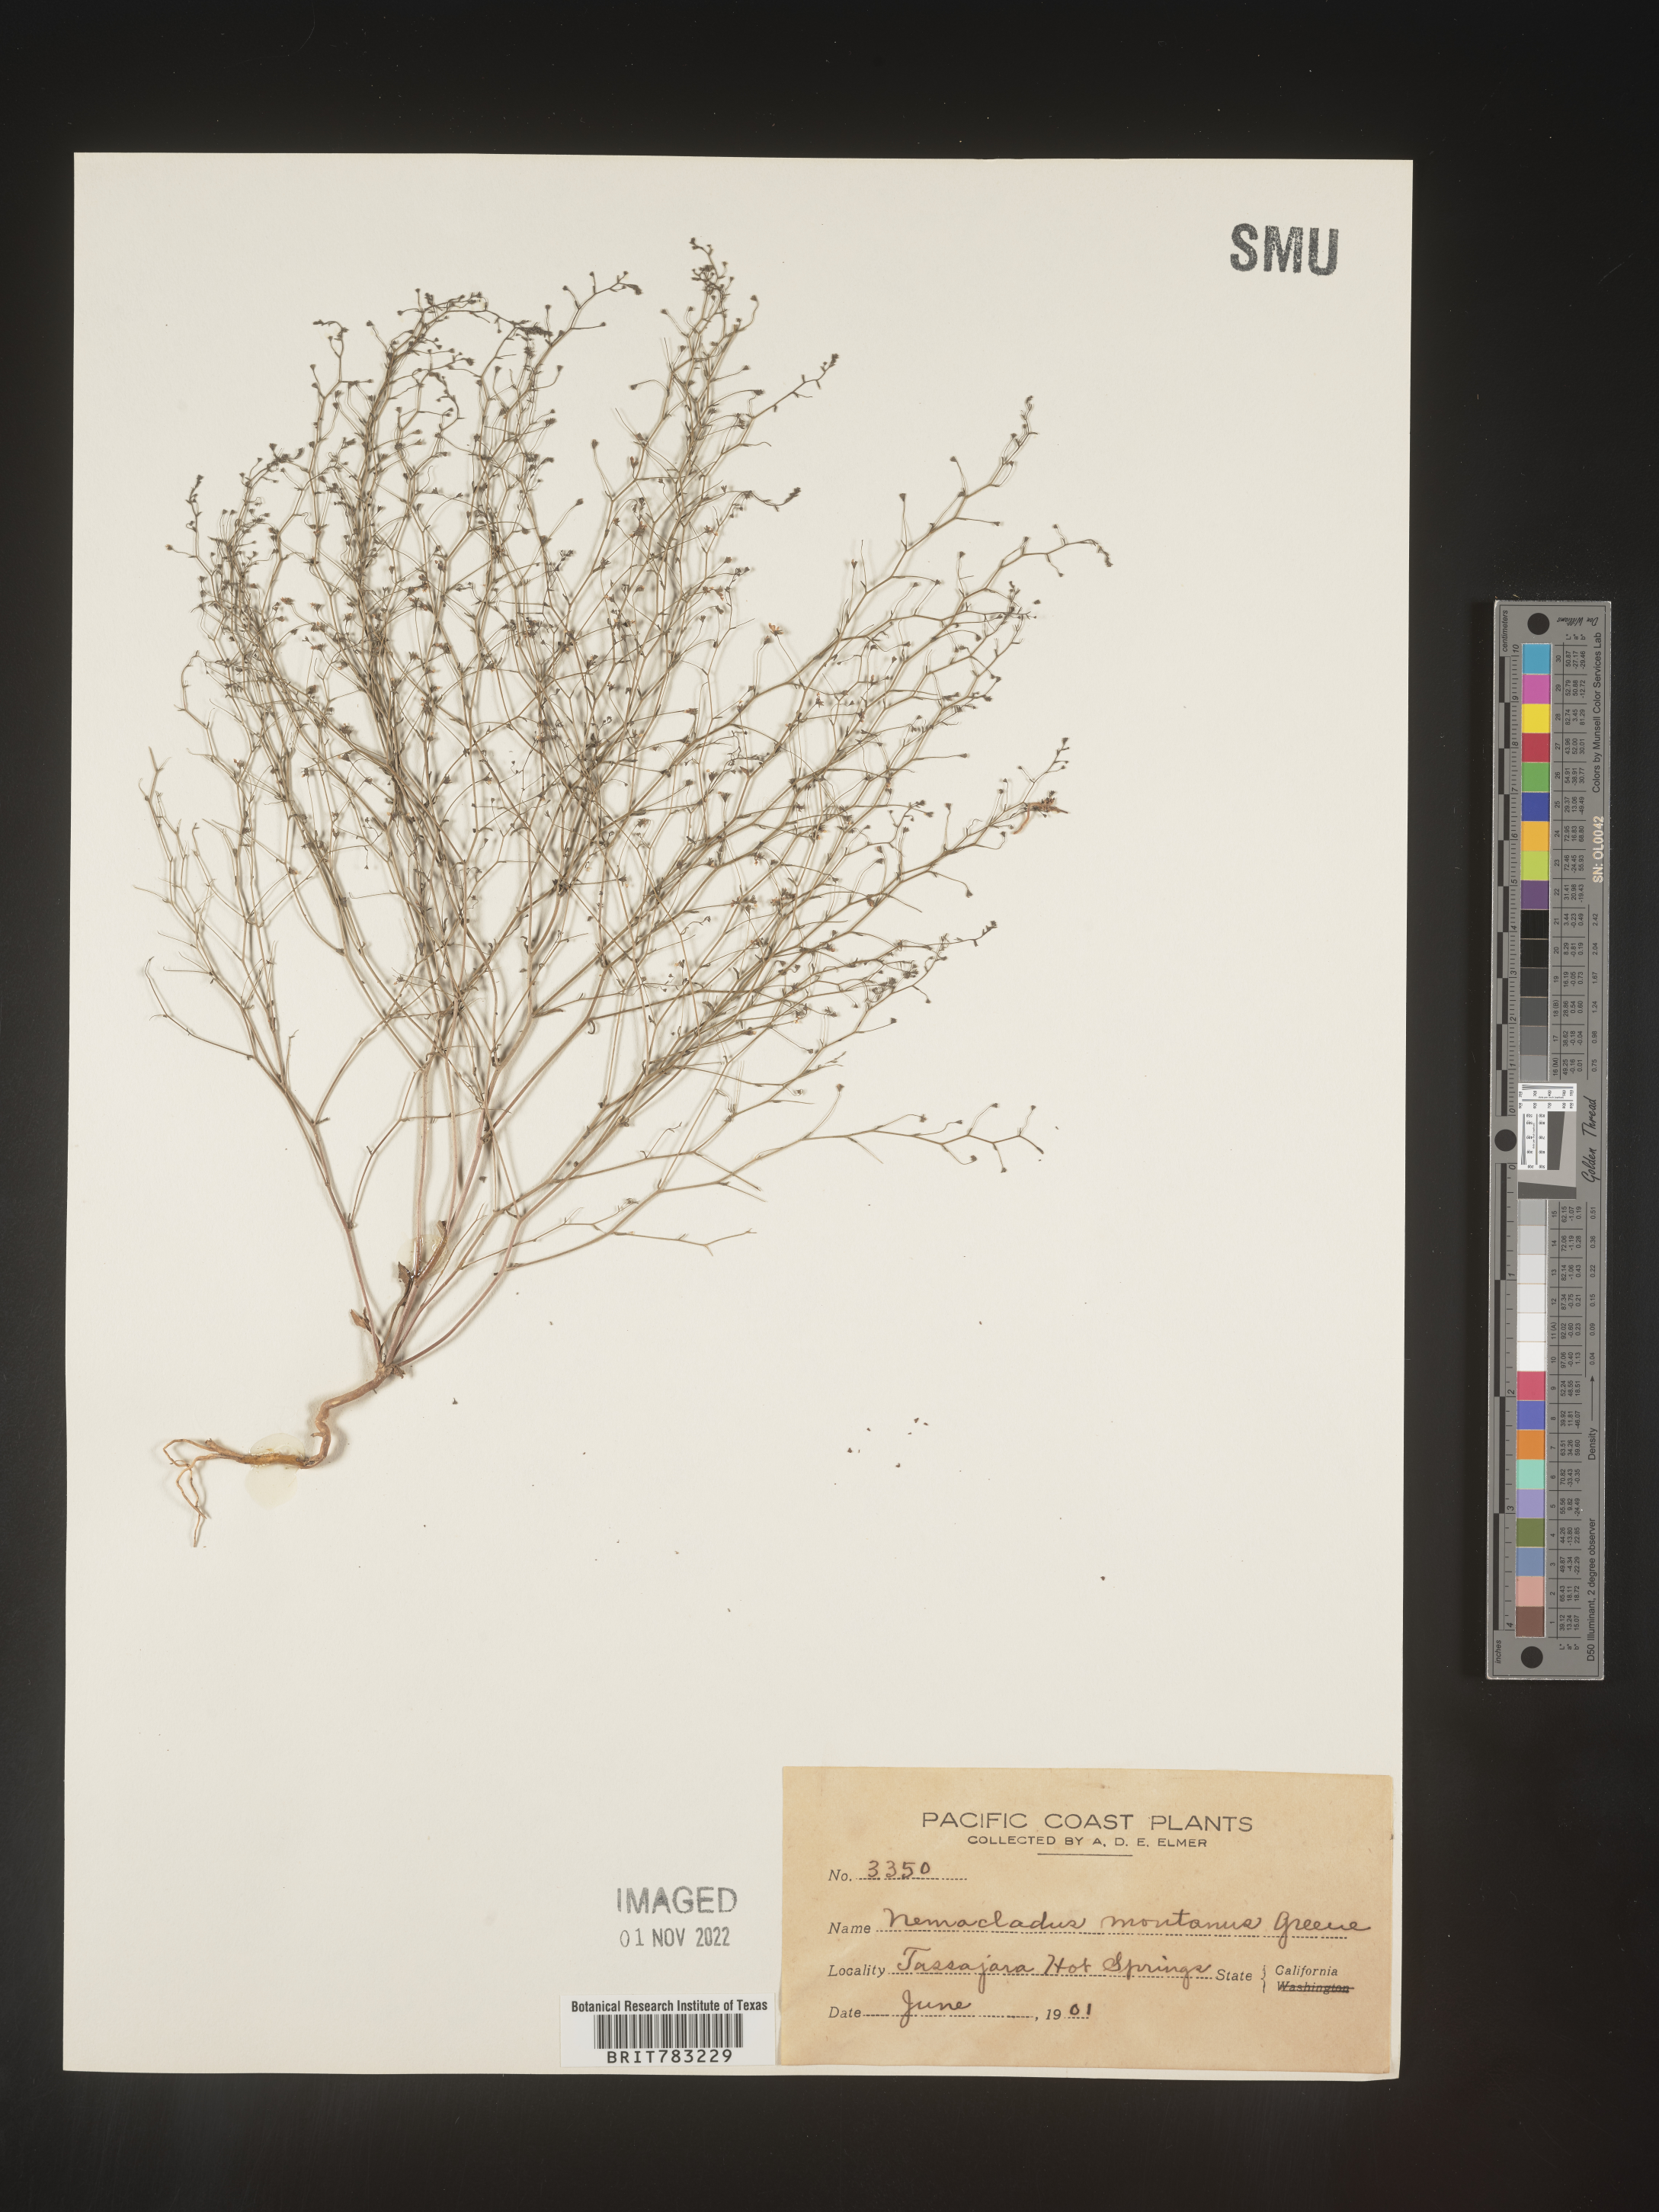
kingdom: Plantae
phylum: Tracheophyta
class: Magnoliopsida
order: Asterales
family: Campanulaceae
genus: Nemacladus
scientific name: Nemacladus
